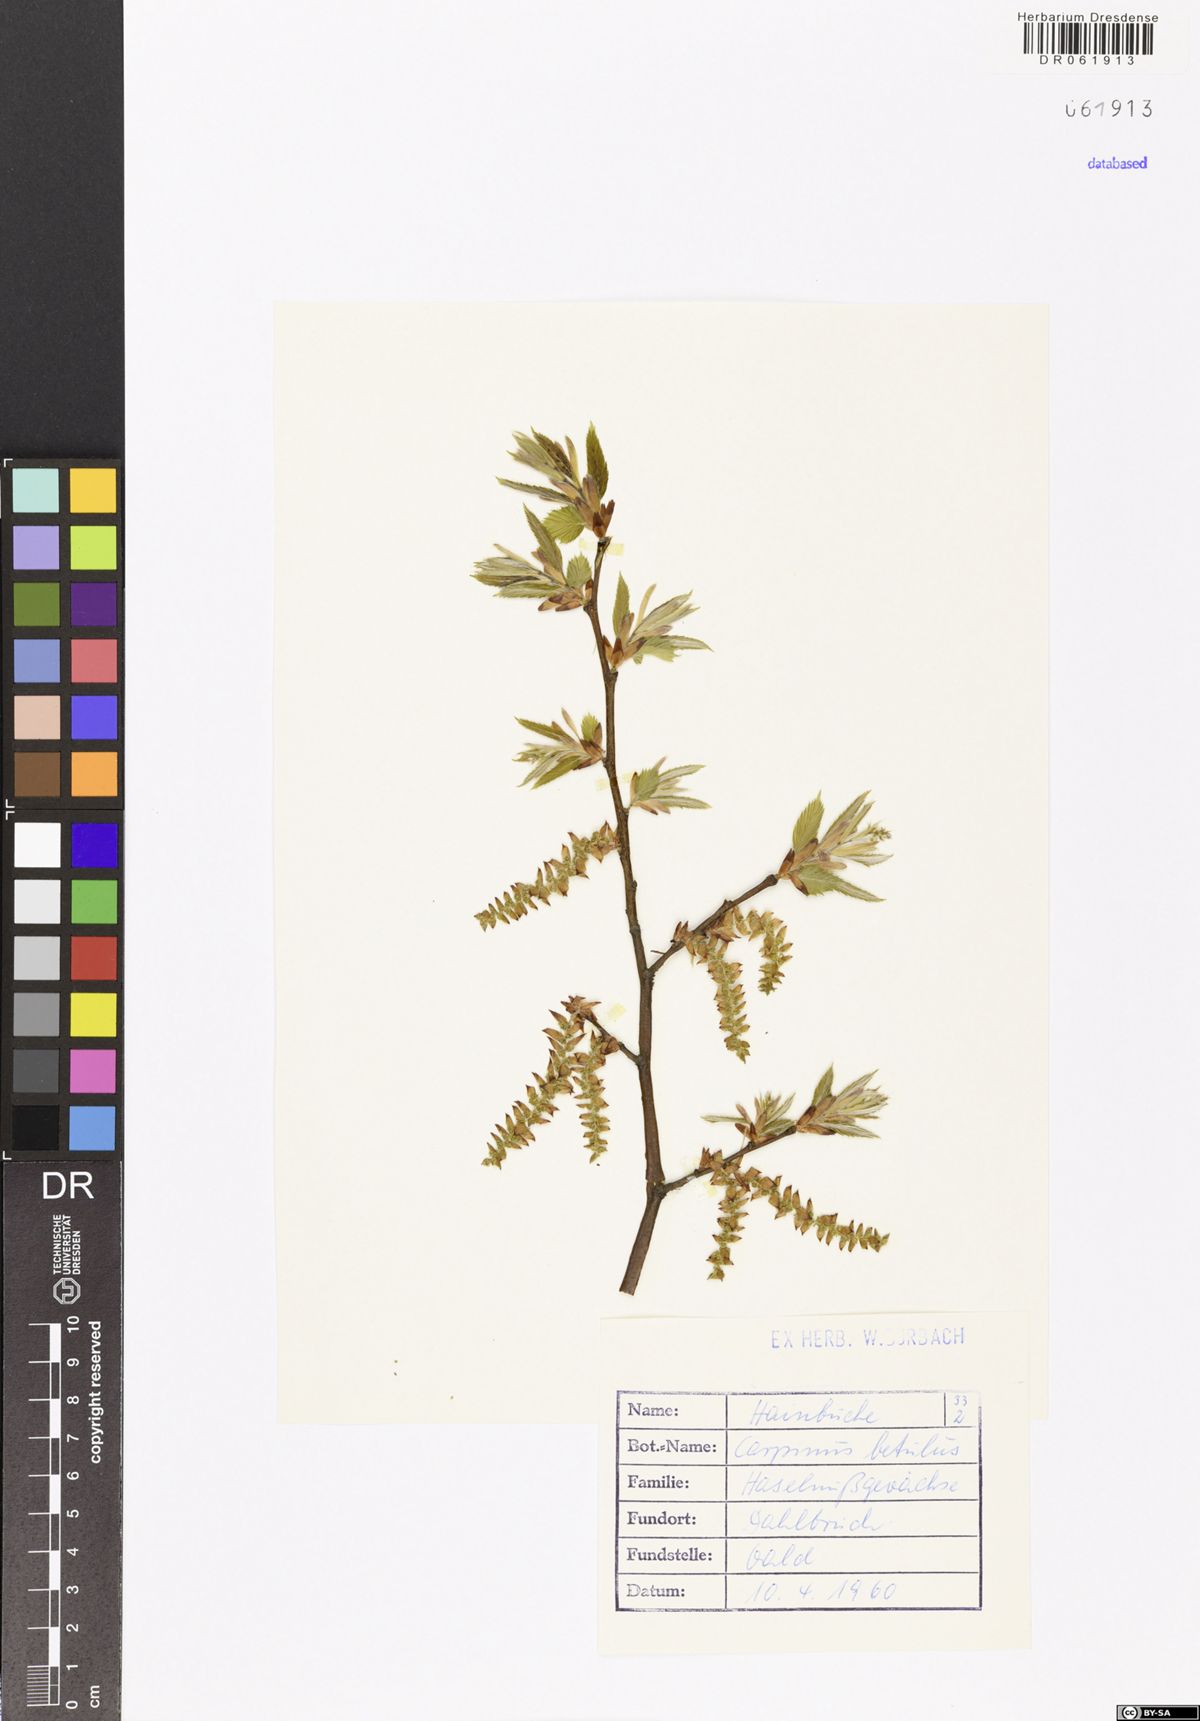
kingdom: Plantae
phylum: Tracheophyta
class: Magnoliopsida
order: Fagales
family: Betulaceae
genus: Carpinus
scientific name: Carpinus betulus
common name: Hornbeam
